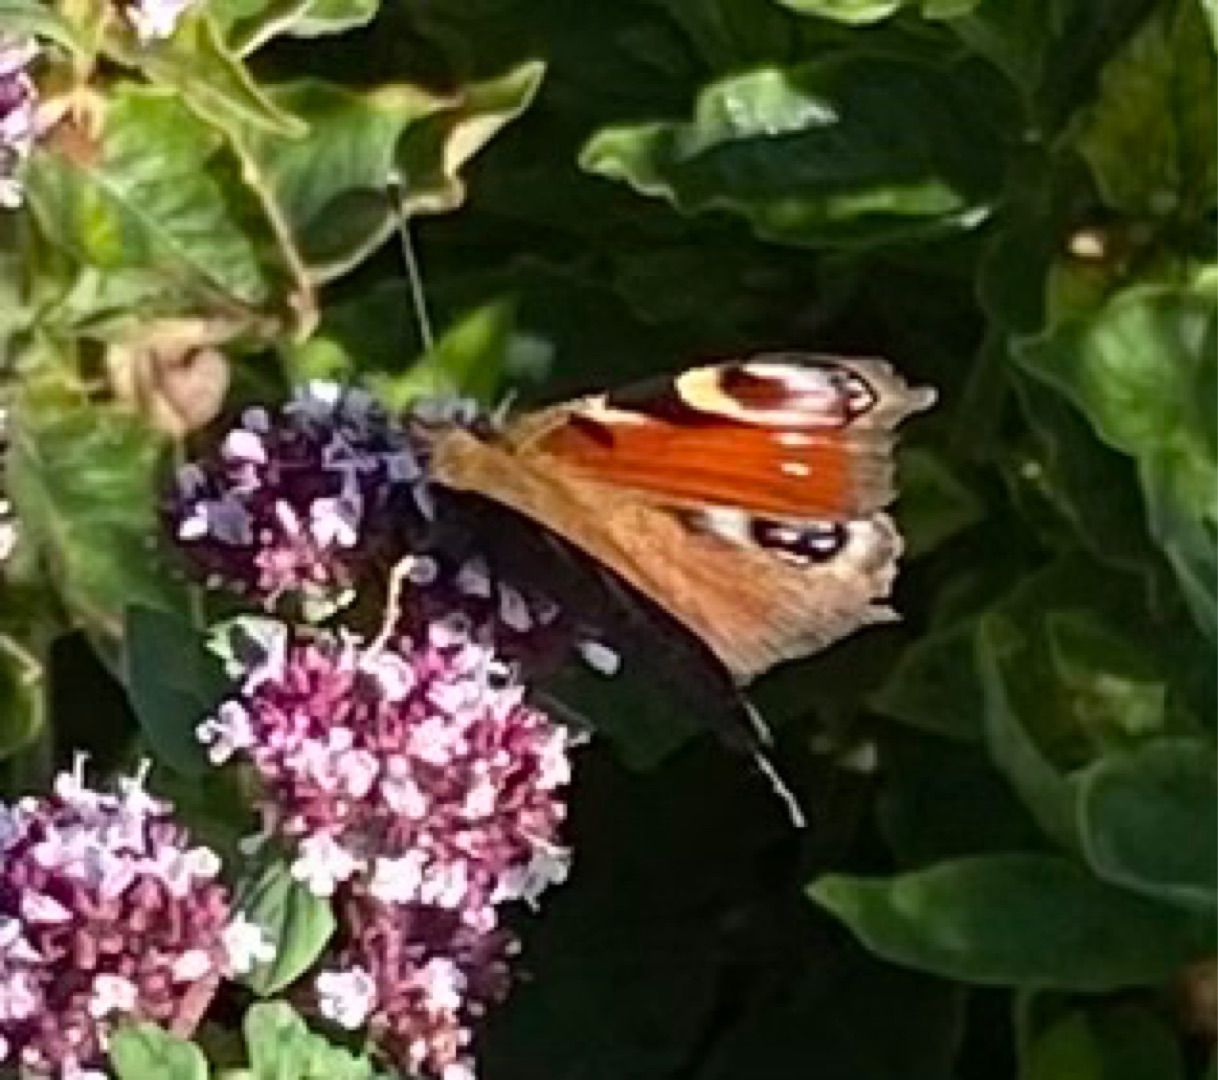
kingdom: Animalia
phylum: Arthropoda
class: Insecta
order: Lepidoptera
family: Nymphalidae
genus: Aglais
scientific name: Aglais io
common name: Dagpåfugleøje
